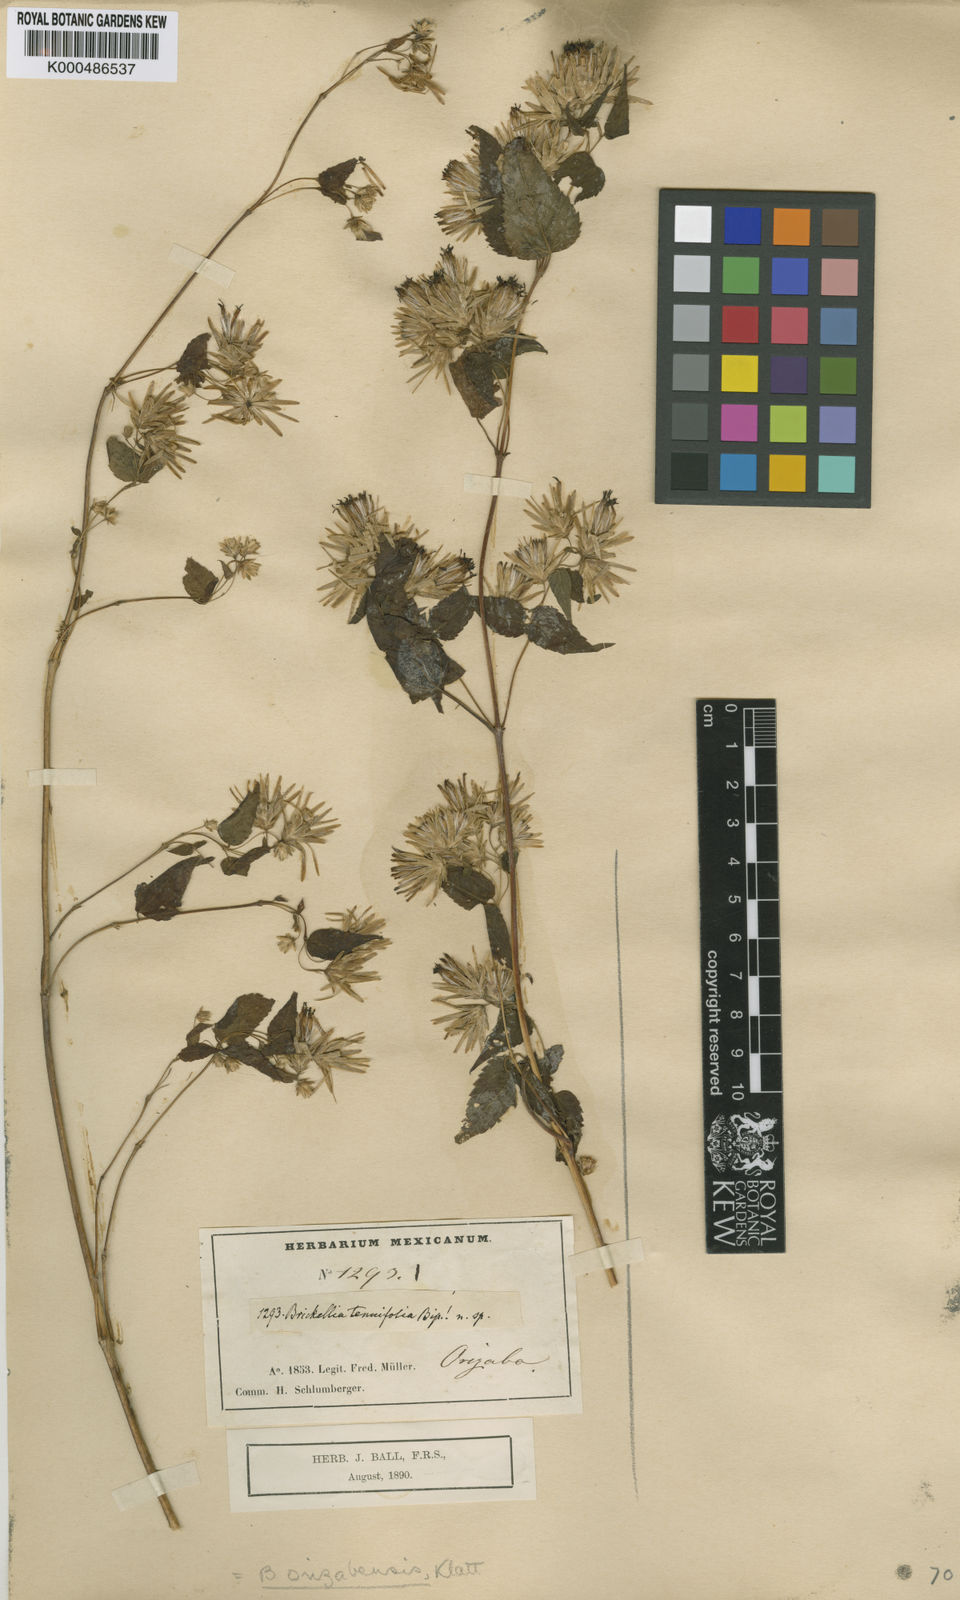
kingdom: Plantae
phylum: Tracheophyta
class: Magnoliopsida
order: Asterales
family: Asteraceae
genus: Brickellia
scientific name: Brickellia orizabaensis
